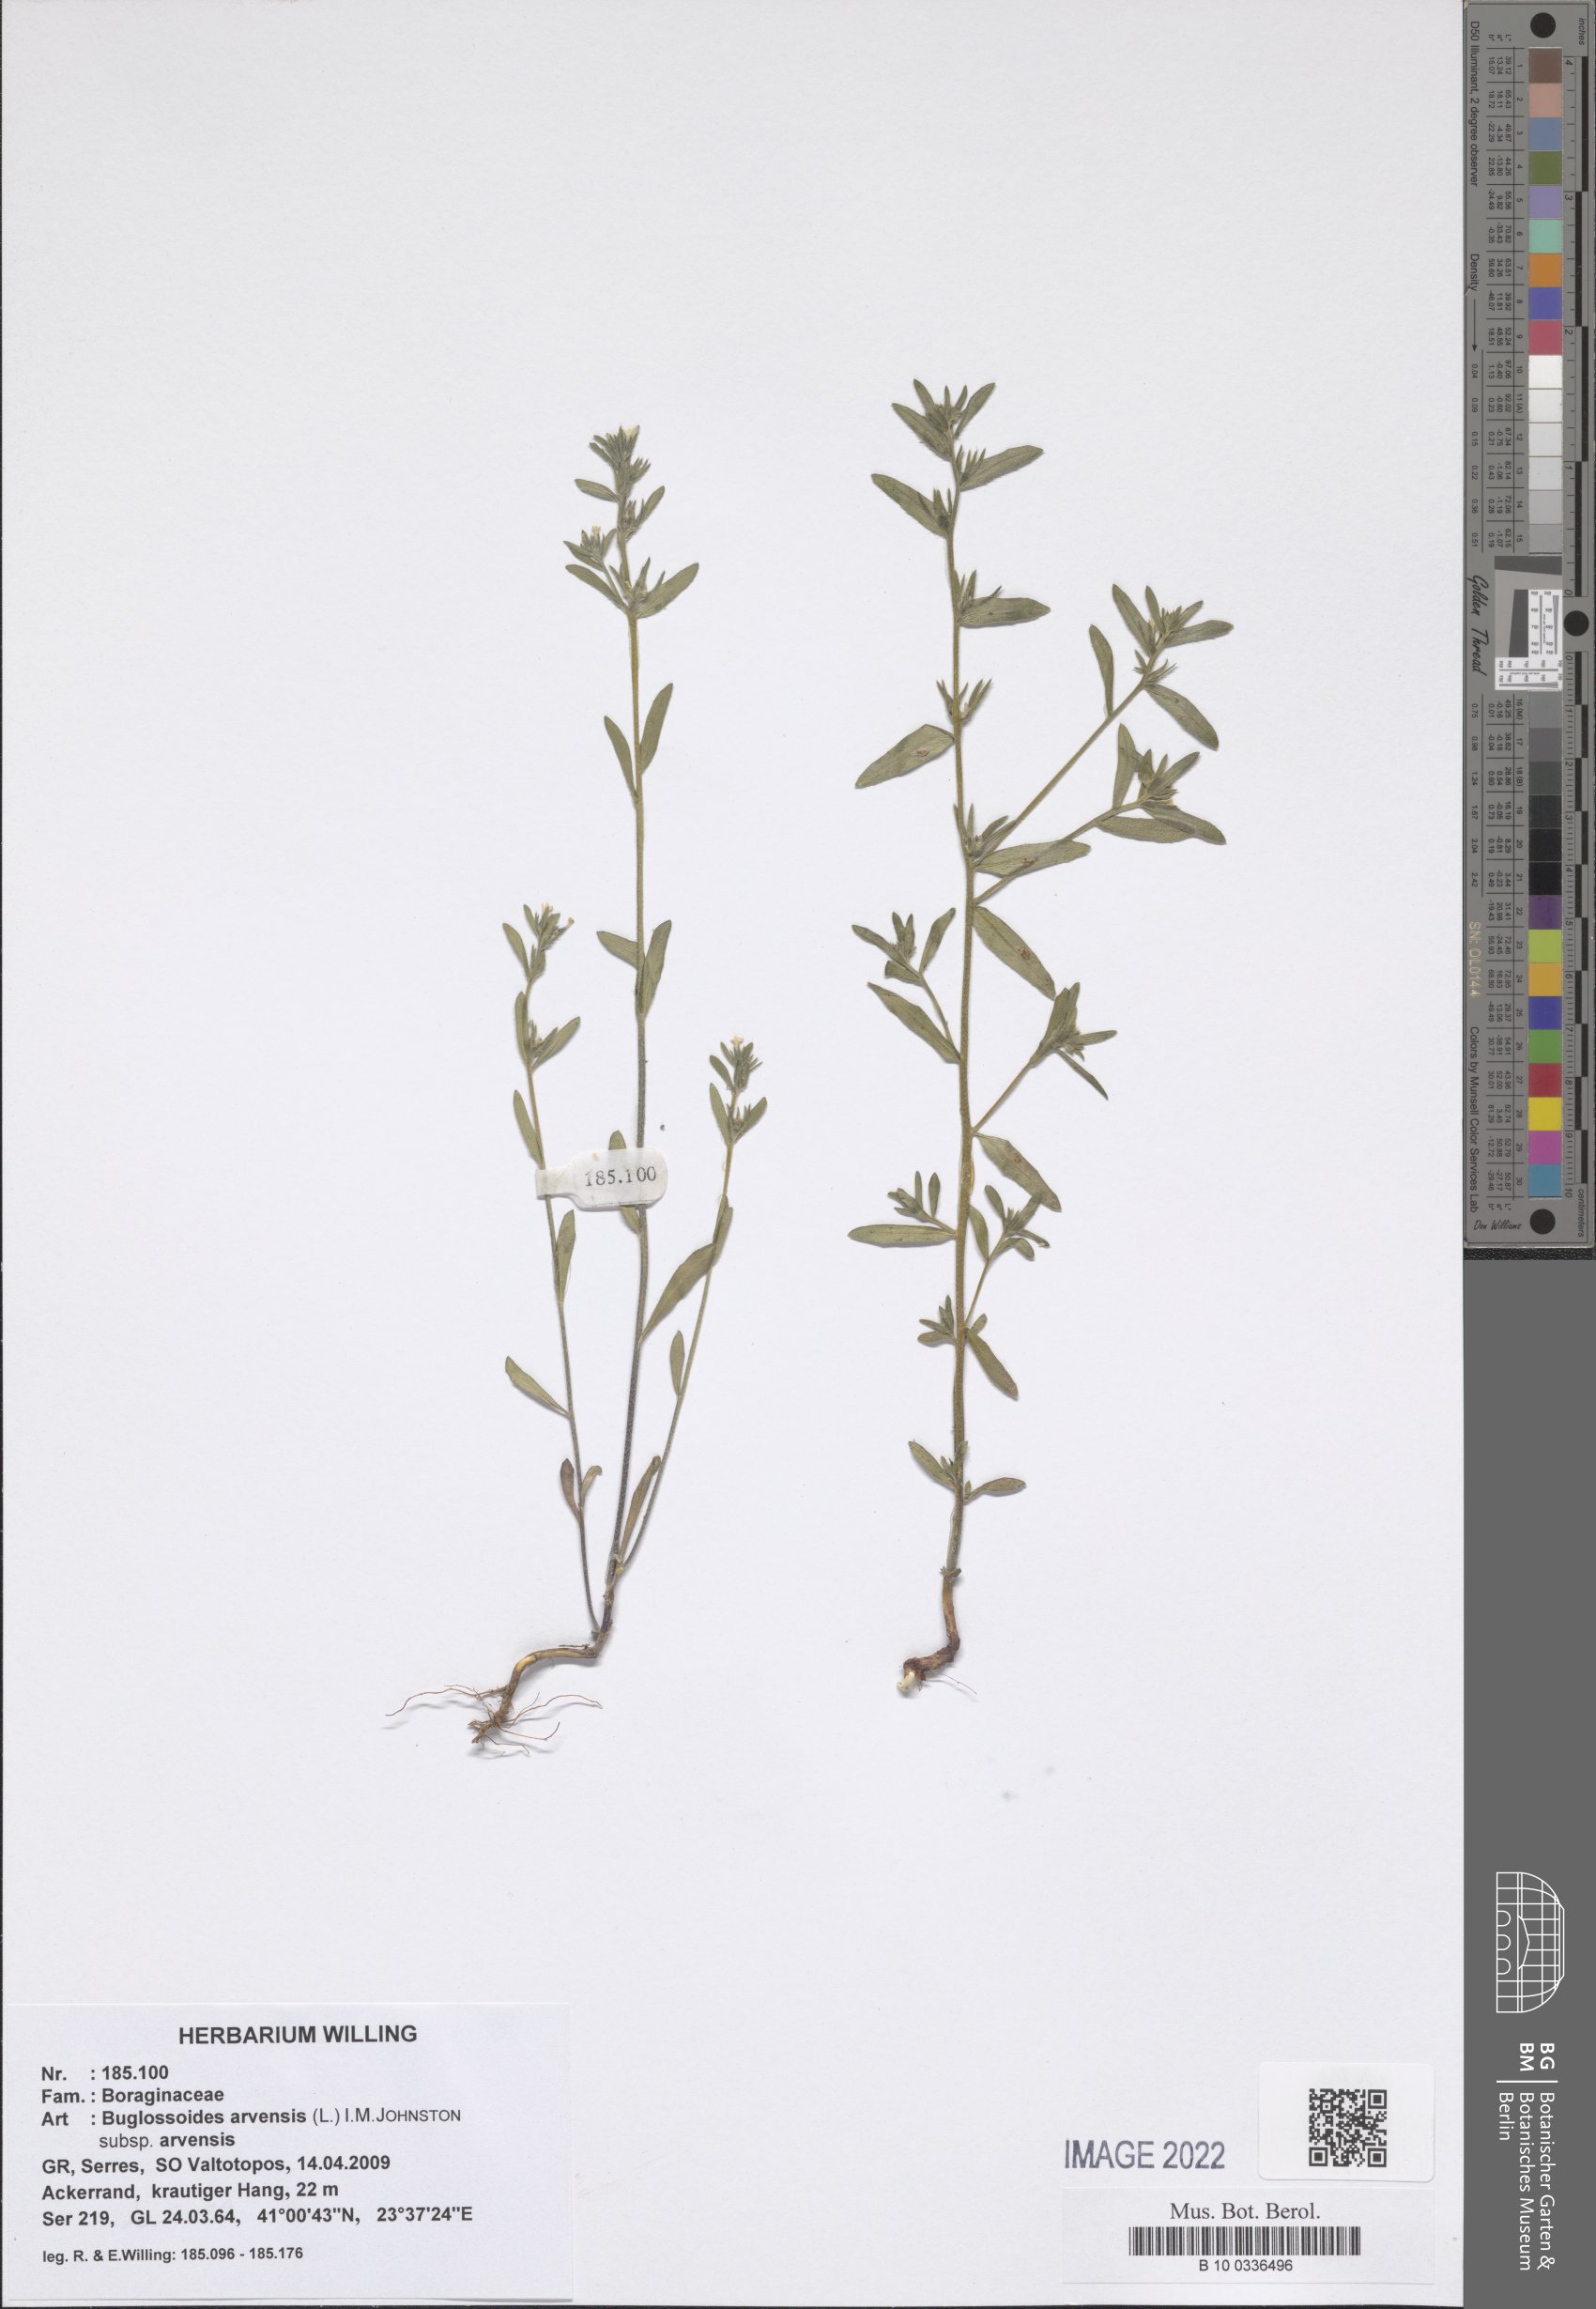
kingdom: Plantae
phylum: Tracheophyta
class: Magnoliopsida
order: Boraginales
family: Boraginaceae
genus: Buglossoides
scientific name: Buglossoides arvensis
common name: Corn gromwell
